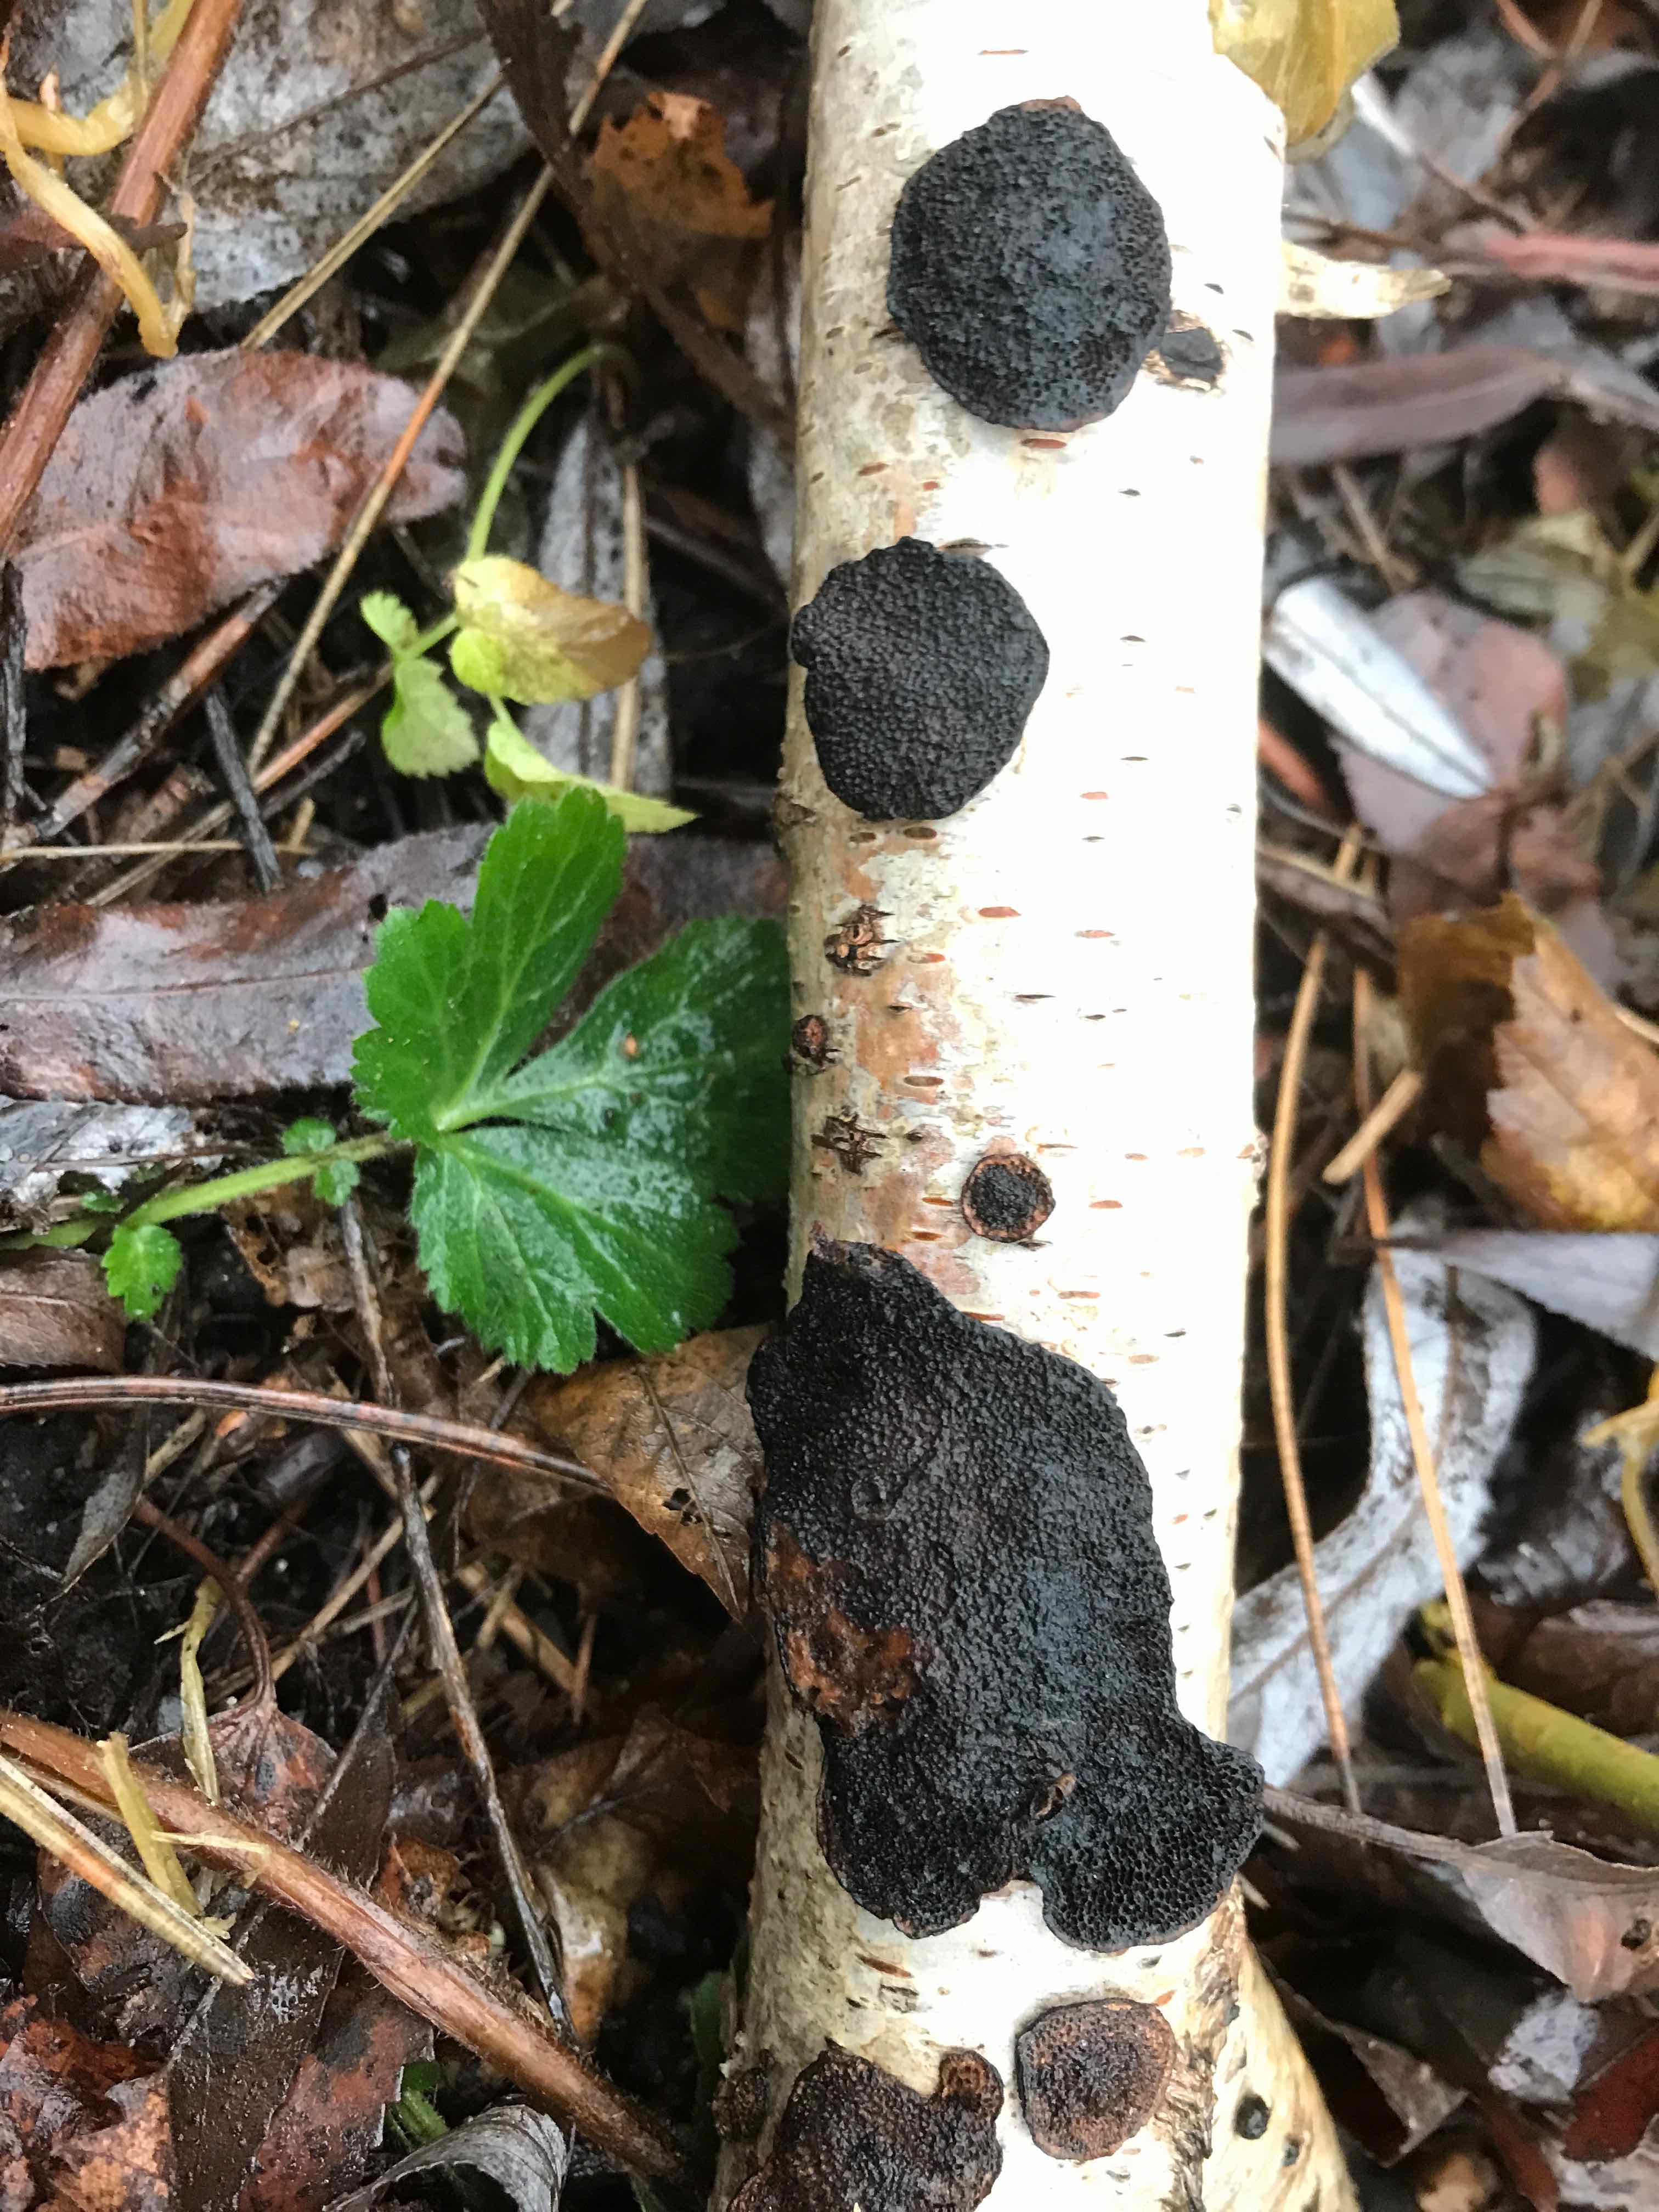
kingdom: Fungi
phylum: Basidiomycota
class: Agaricomycetes
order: Hymenochaetales
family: Hymenochaetaceae
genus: Inonotus
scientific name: Inonotus obliquus
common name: birke-spejlporesvamp
